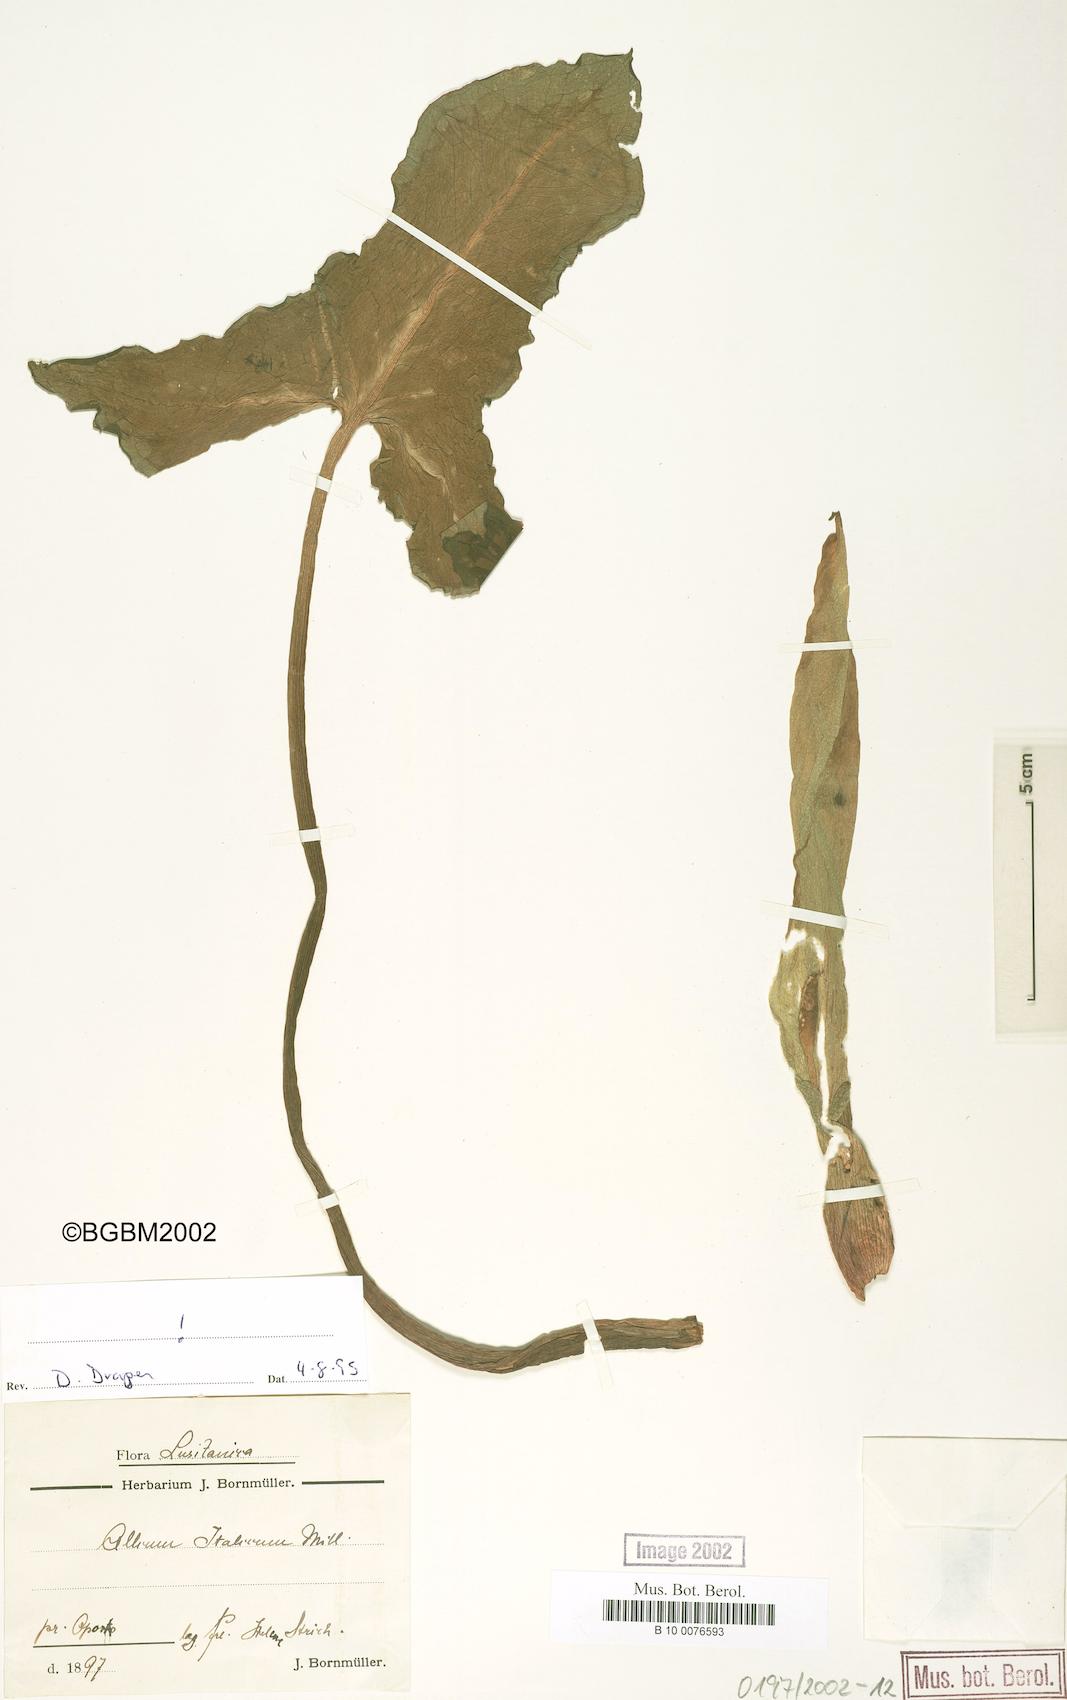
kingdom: Plantae
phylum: Tracheophyta
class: Liliopsida
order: Liliales
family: Liliaceae
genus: Allium
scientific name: Allium
